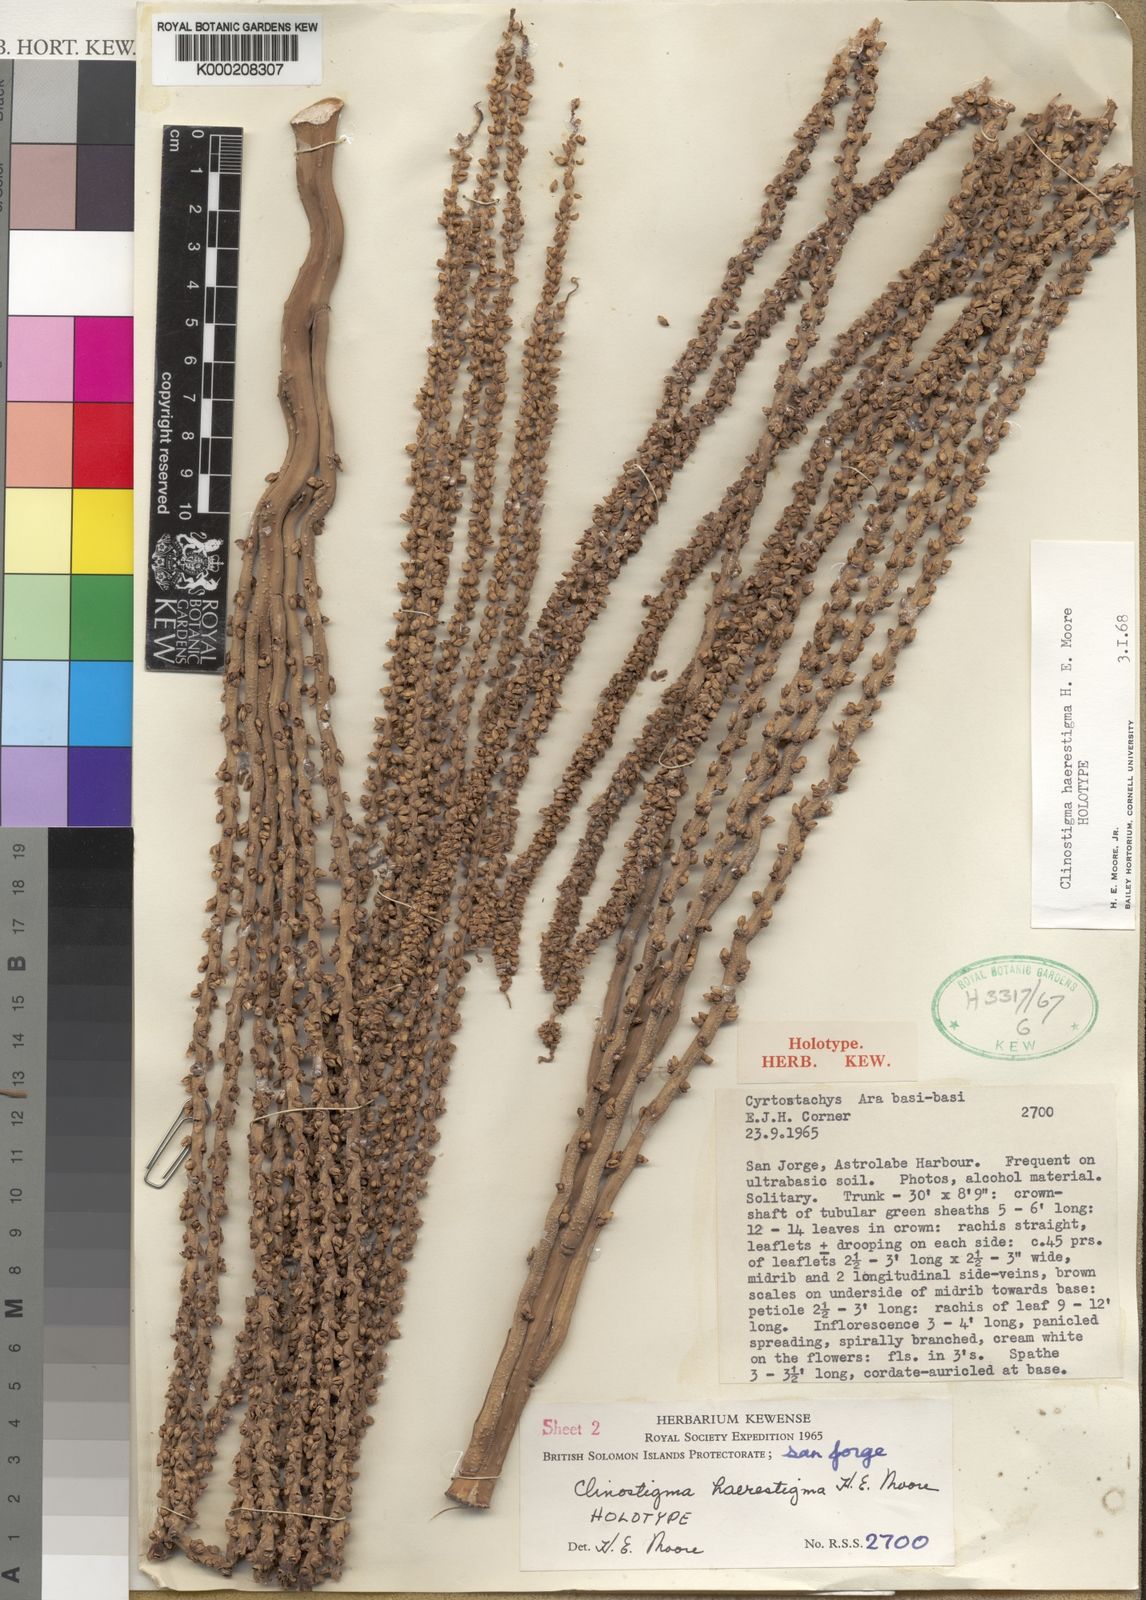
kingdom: Plantae
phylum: Tracheophyta
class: Liliopsida
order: Arecales
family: Arecaceae
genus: Clinostigma
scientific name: Clinostigma haerestigma
